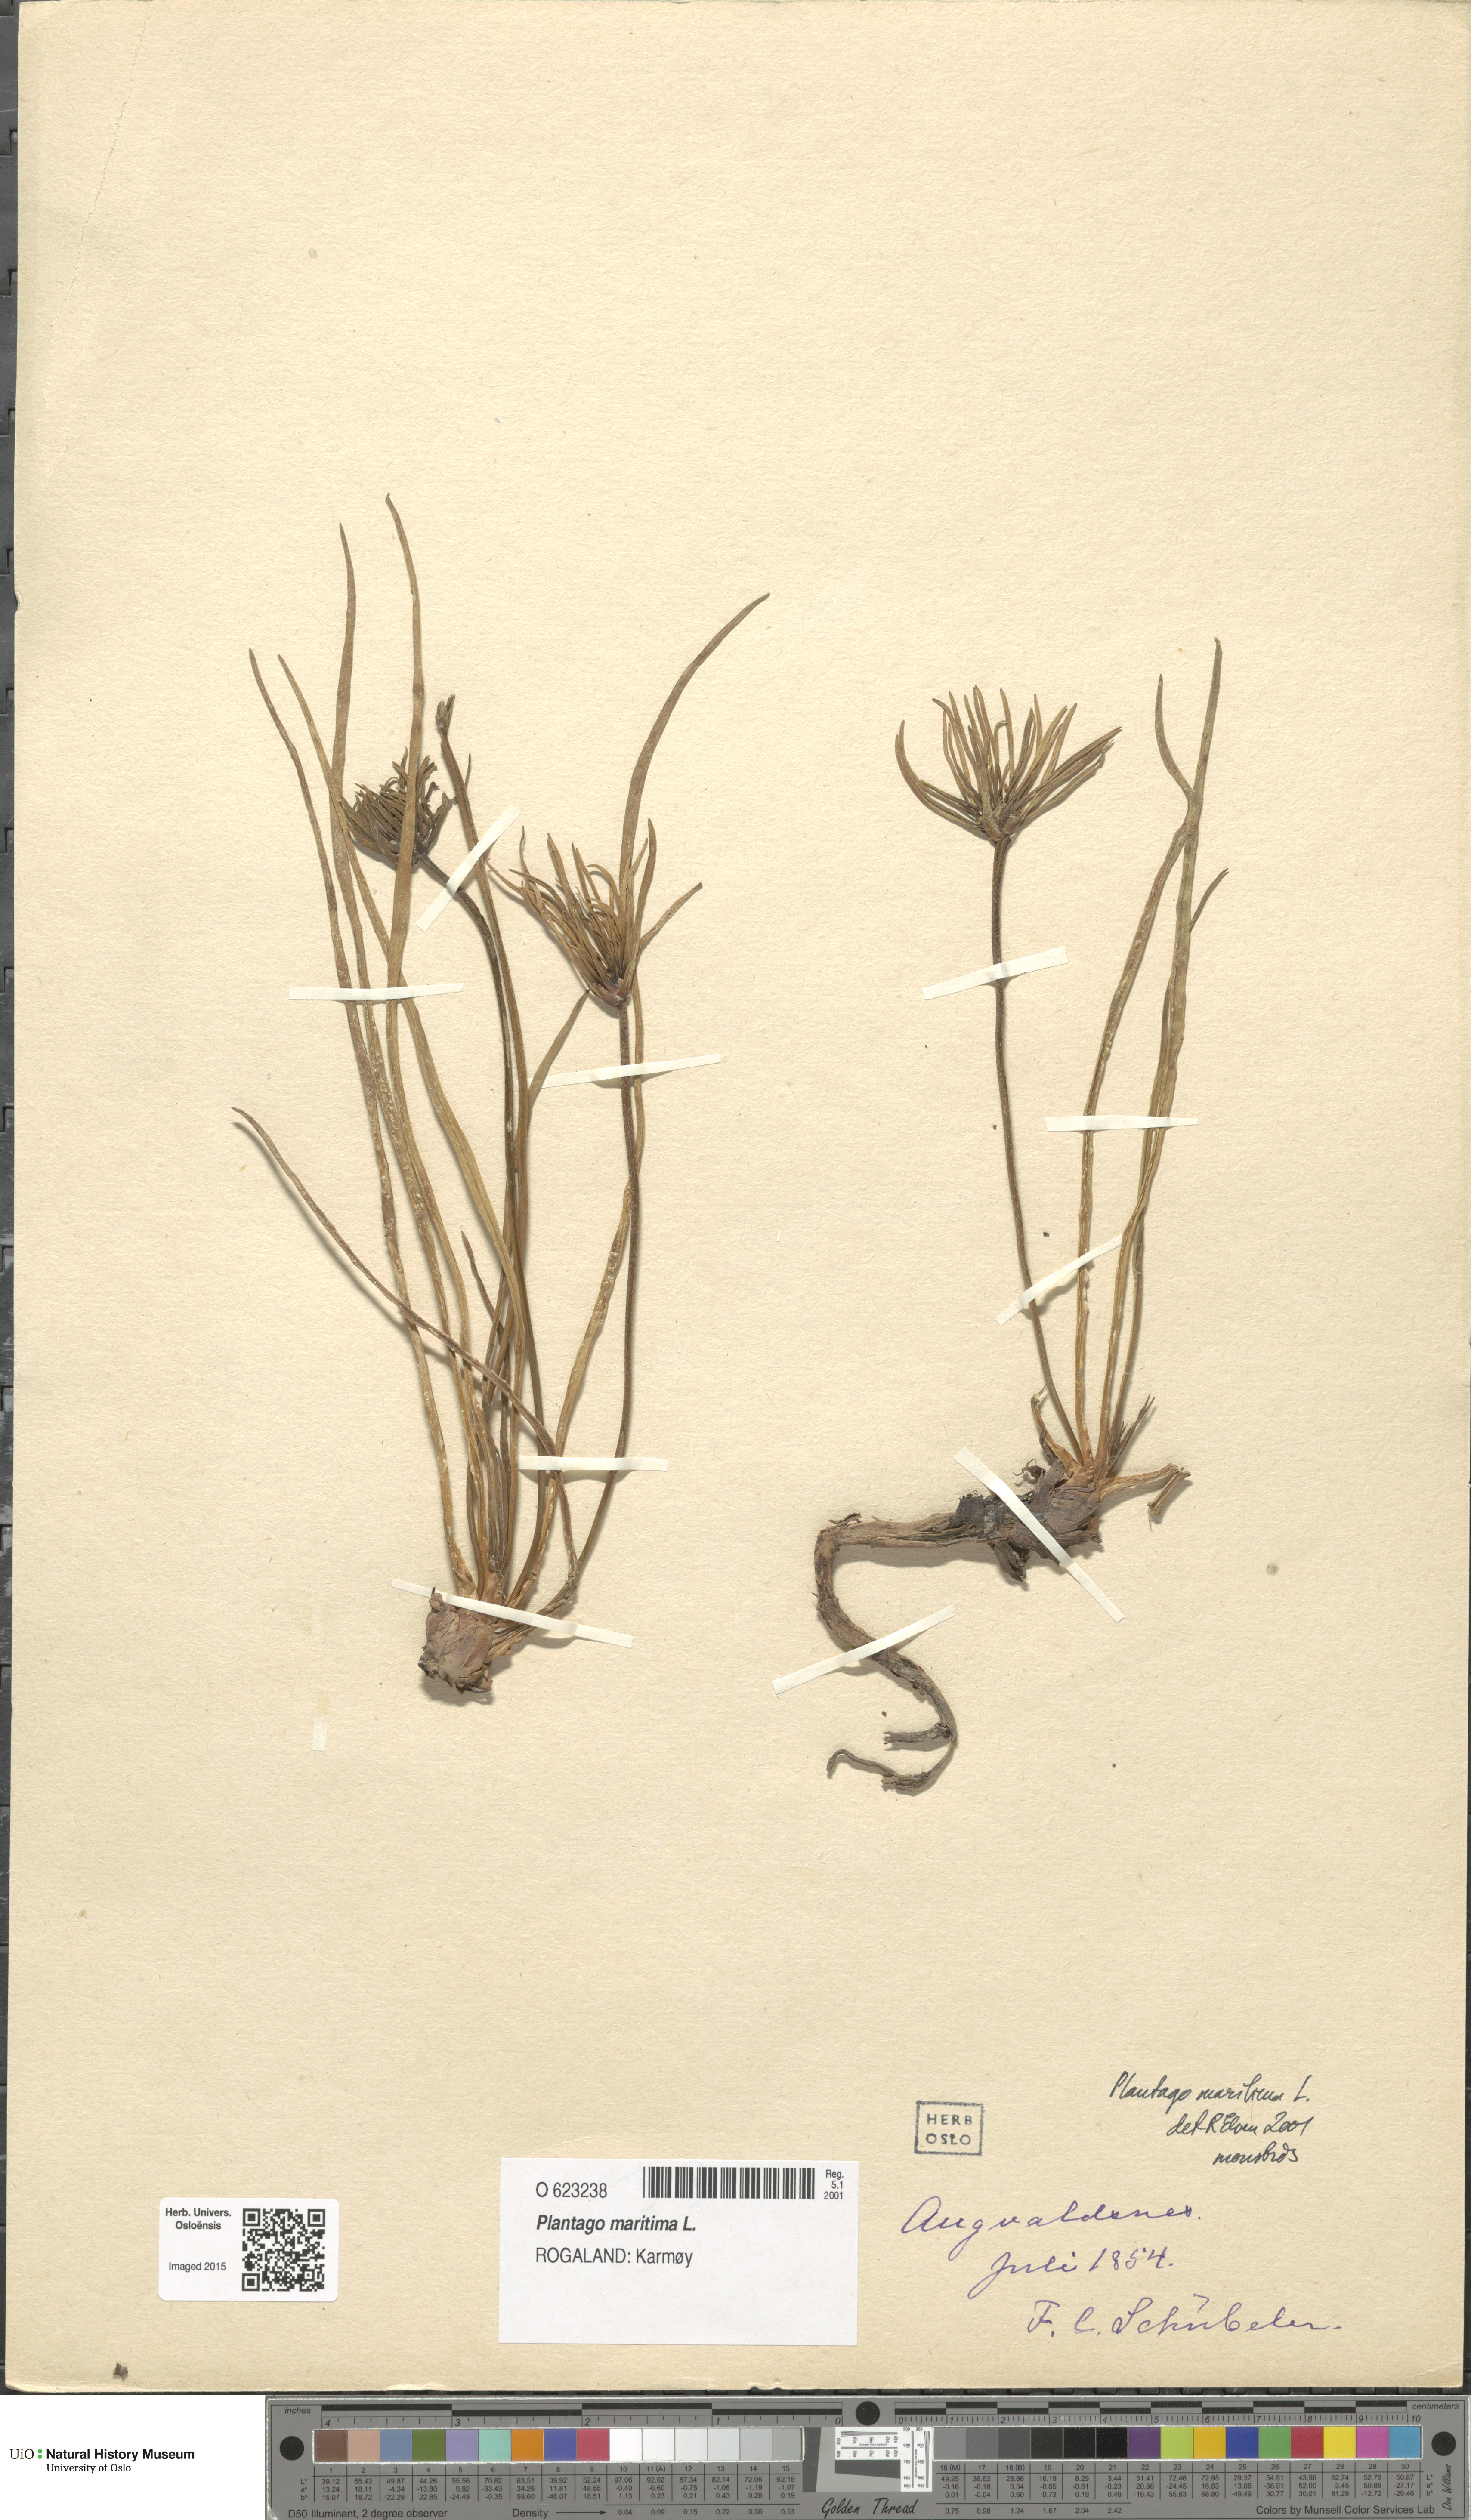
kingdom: Plantae
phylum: Tracheophyta
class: Magnoliopsida
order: Lamiales
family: Plantaginaceae
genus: Plantago
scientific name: Plantago maritima
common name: Sea plantain
